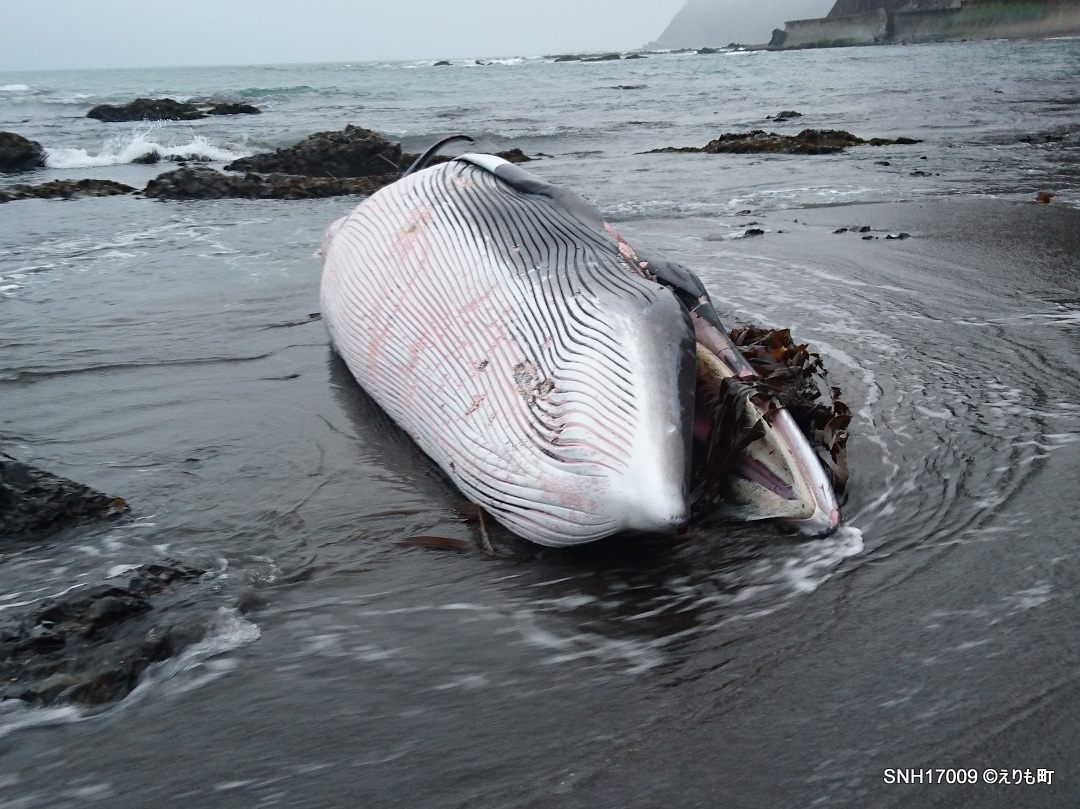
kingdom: Animalia
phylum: Chordata
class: Mammalia
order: Cetacea
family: Balaenopteridae
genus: Balaenoptera
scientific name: Balaenoptera acutorostrata
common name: Minke whale
